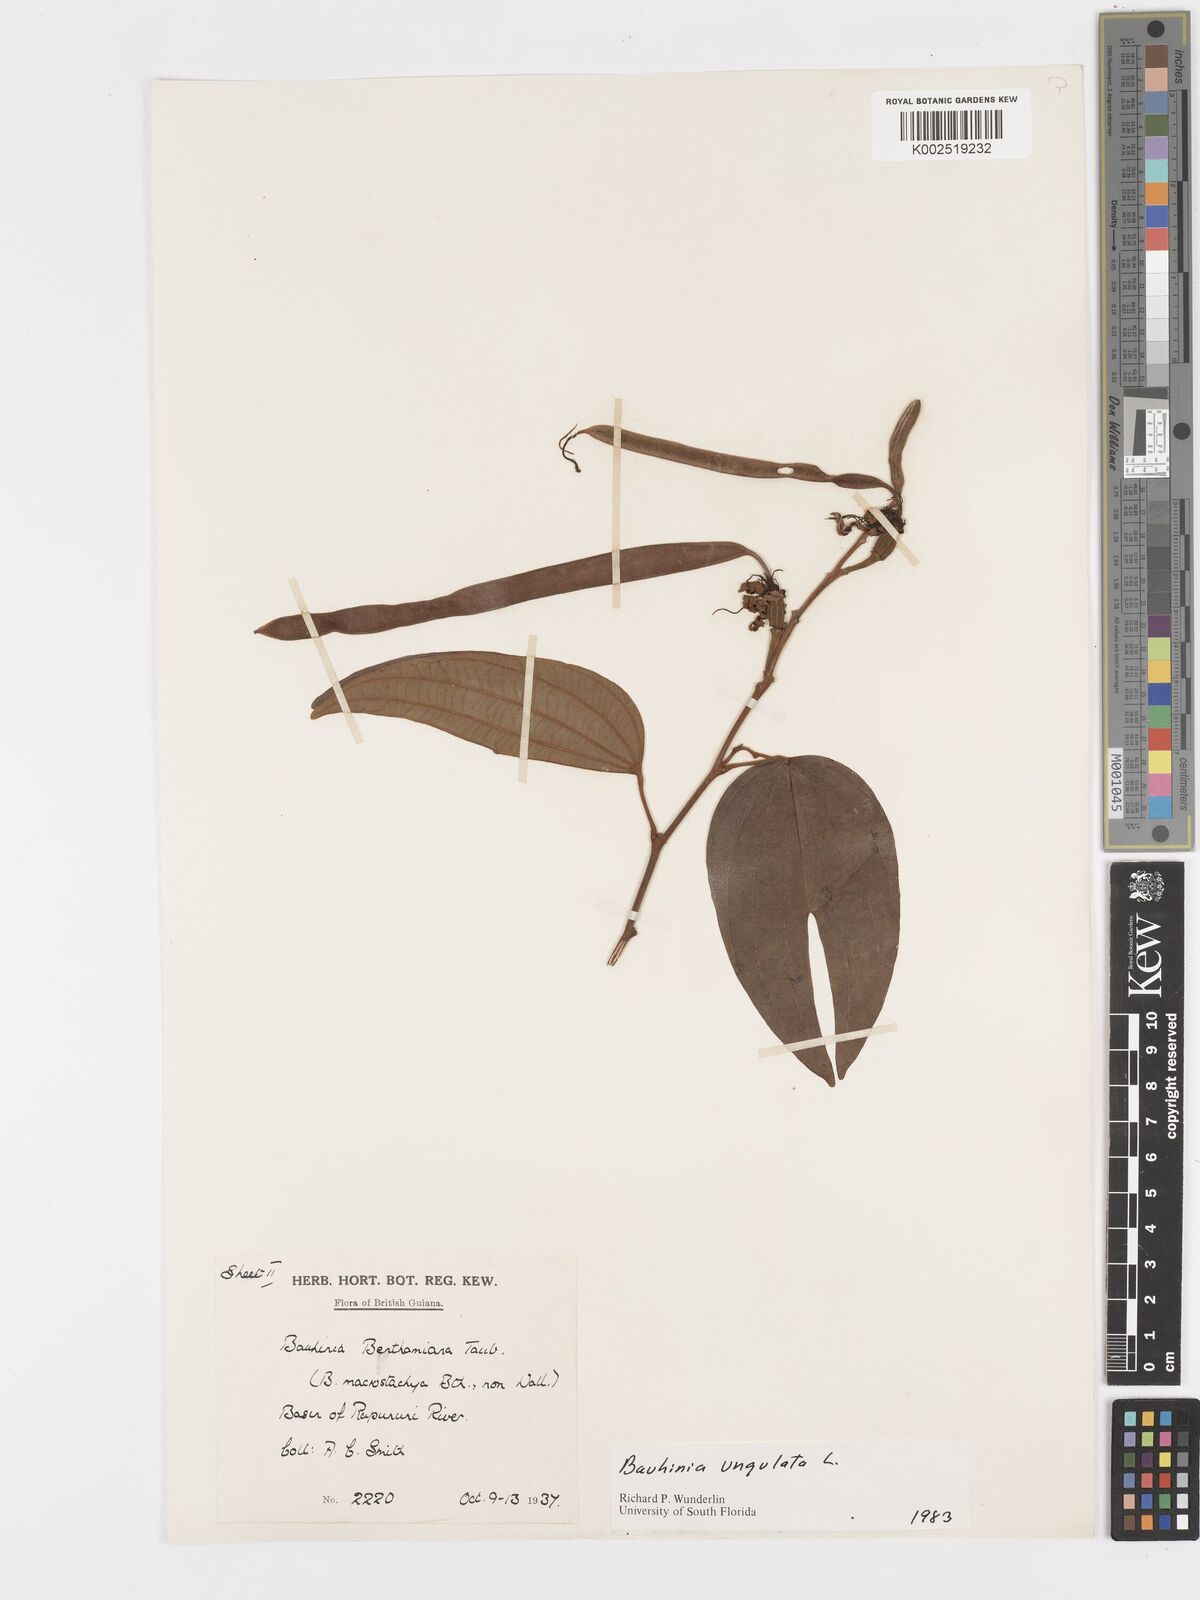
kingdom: Plantae
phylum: Tracheophyta
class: Magnoliopsida
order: Fabales
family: Fabaceae
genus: Bauhinia
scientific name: Bauhinia ungulata
